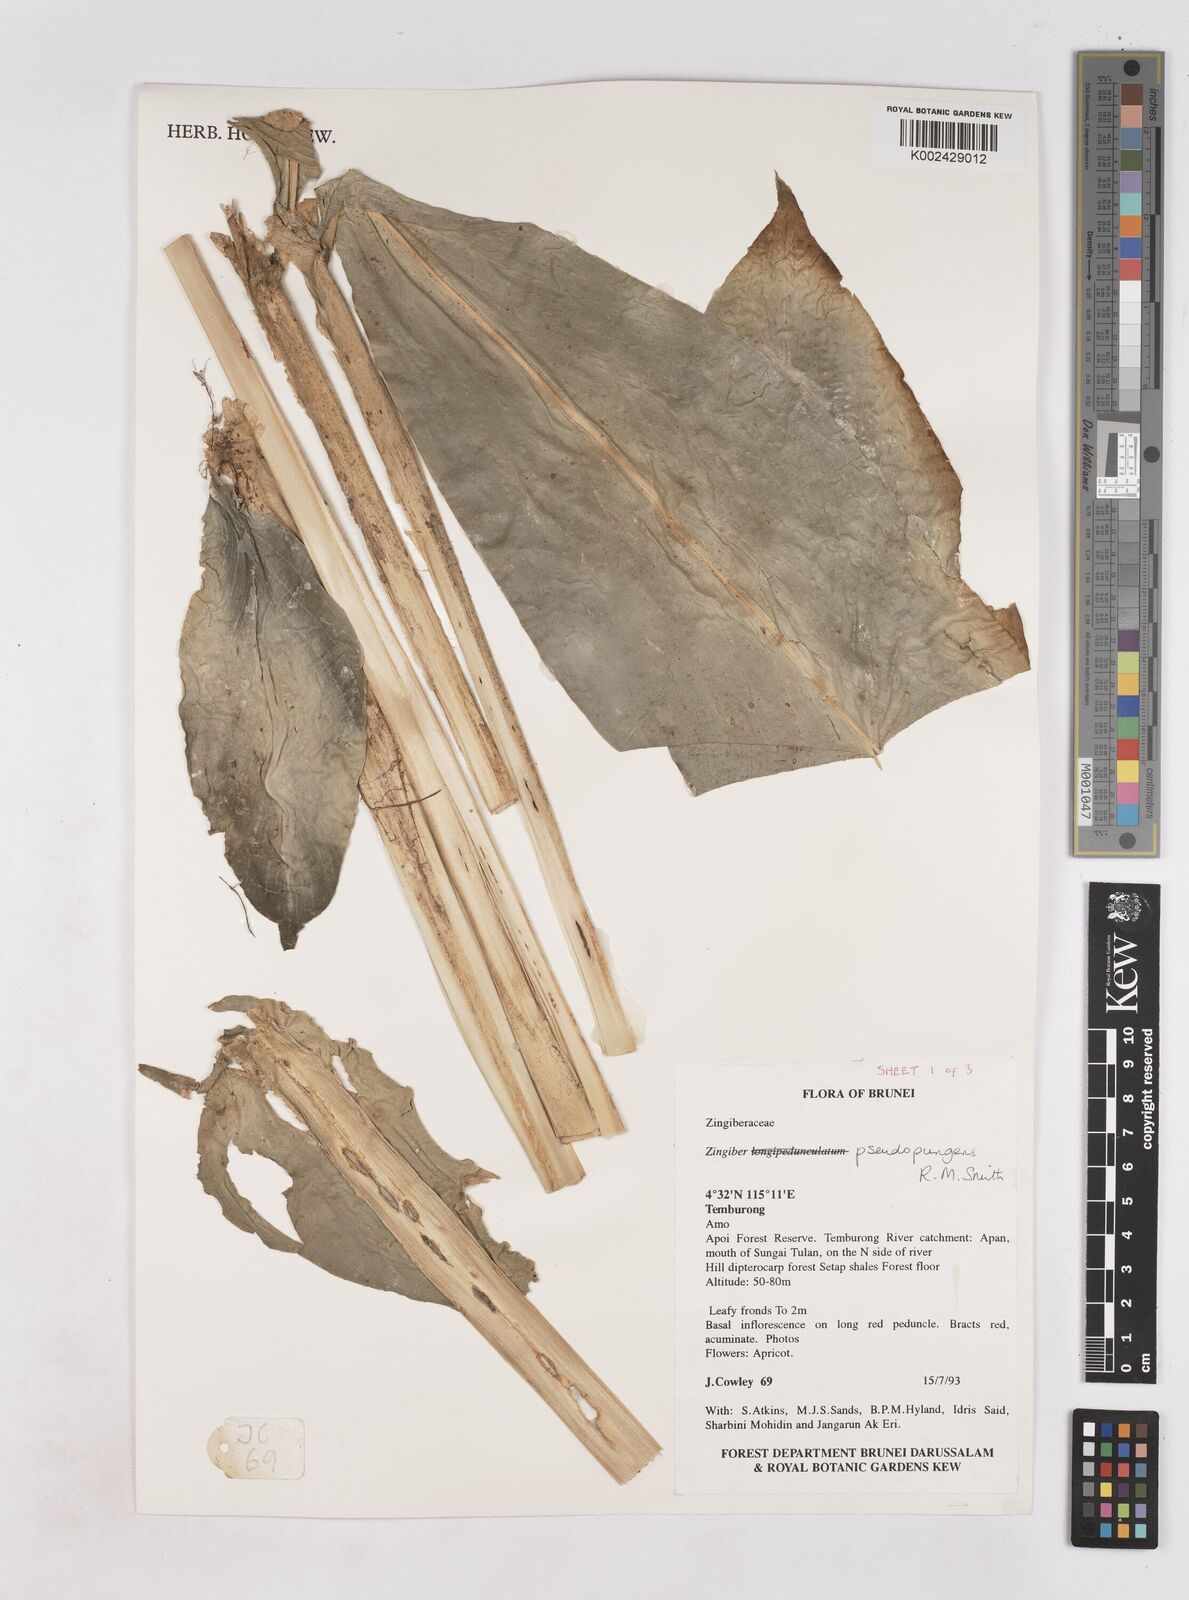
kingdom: Plantae
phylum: Tracheophyta
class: Liliopsida
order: Zingiberales
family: Zingiberaceae
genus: Zingiber
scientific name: Zingiber pseudopungens
